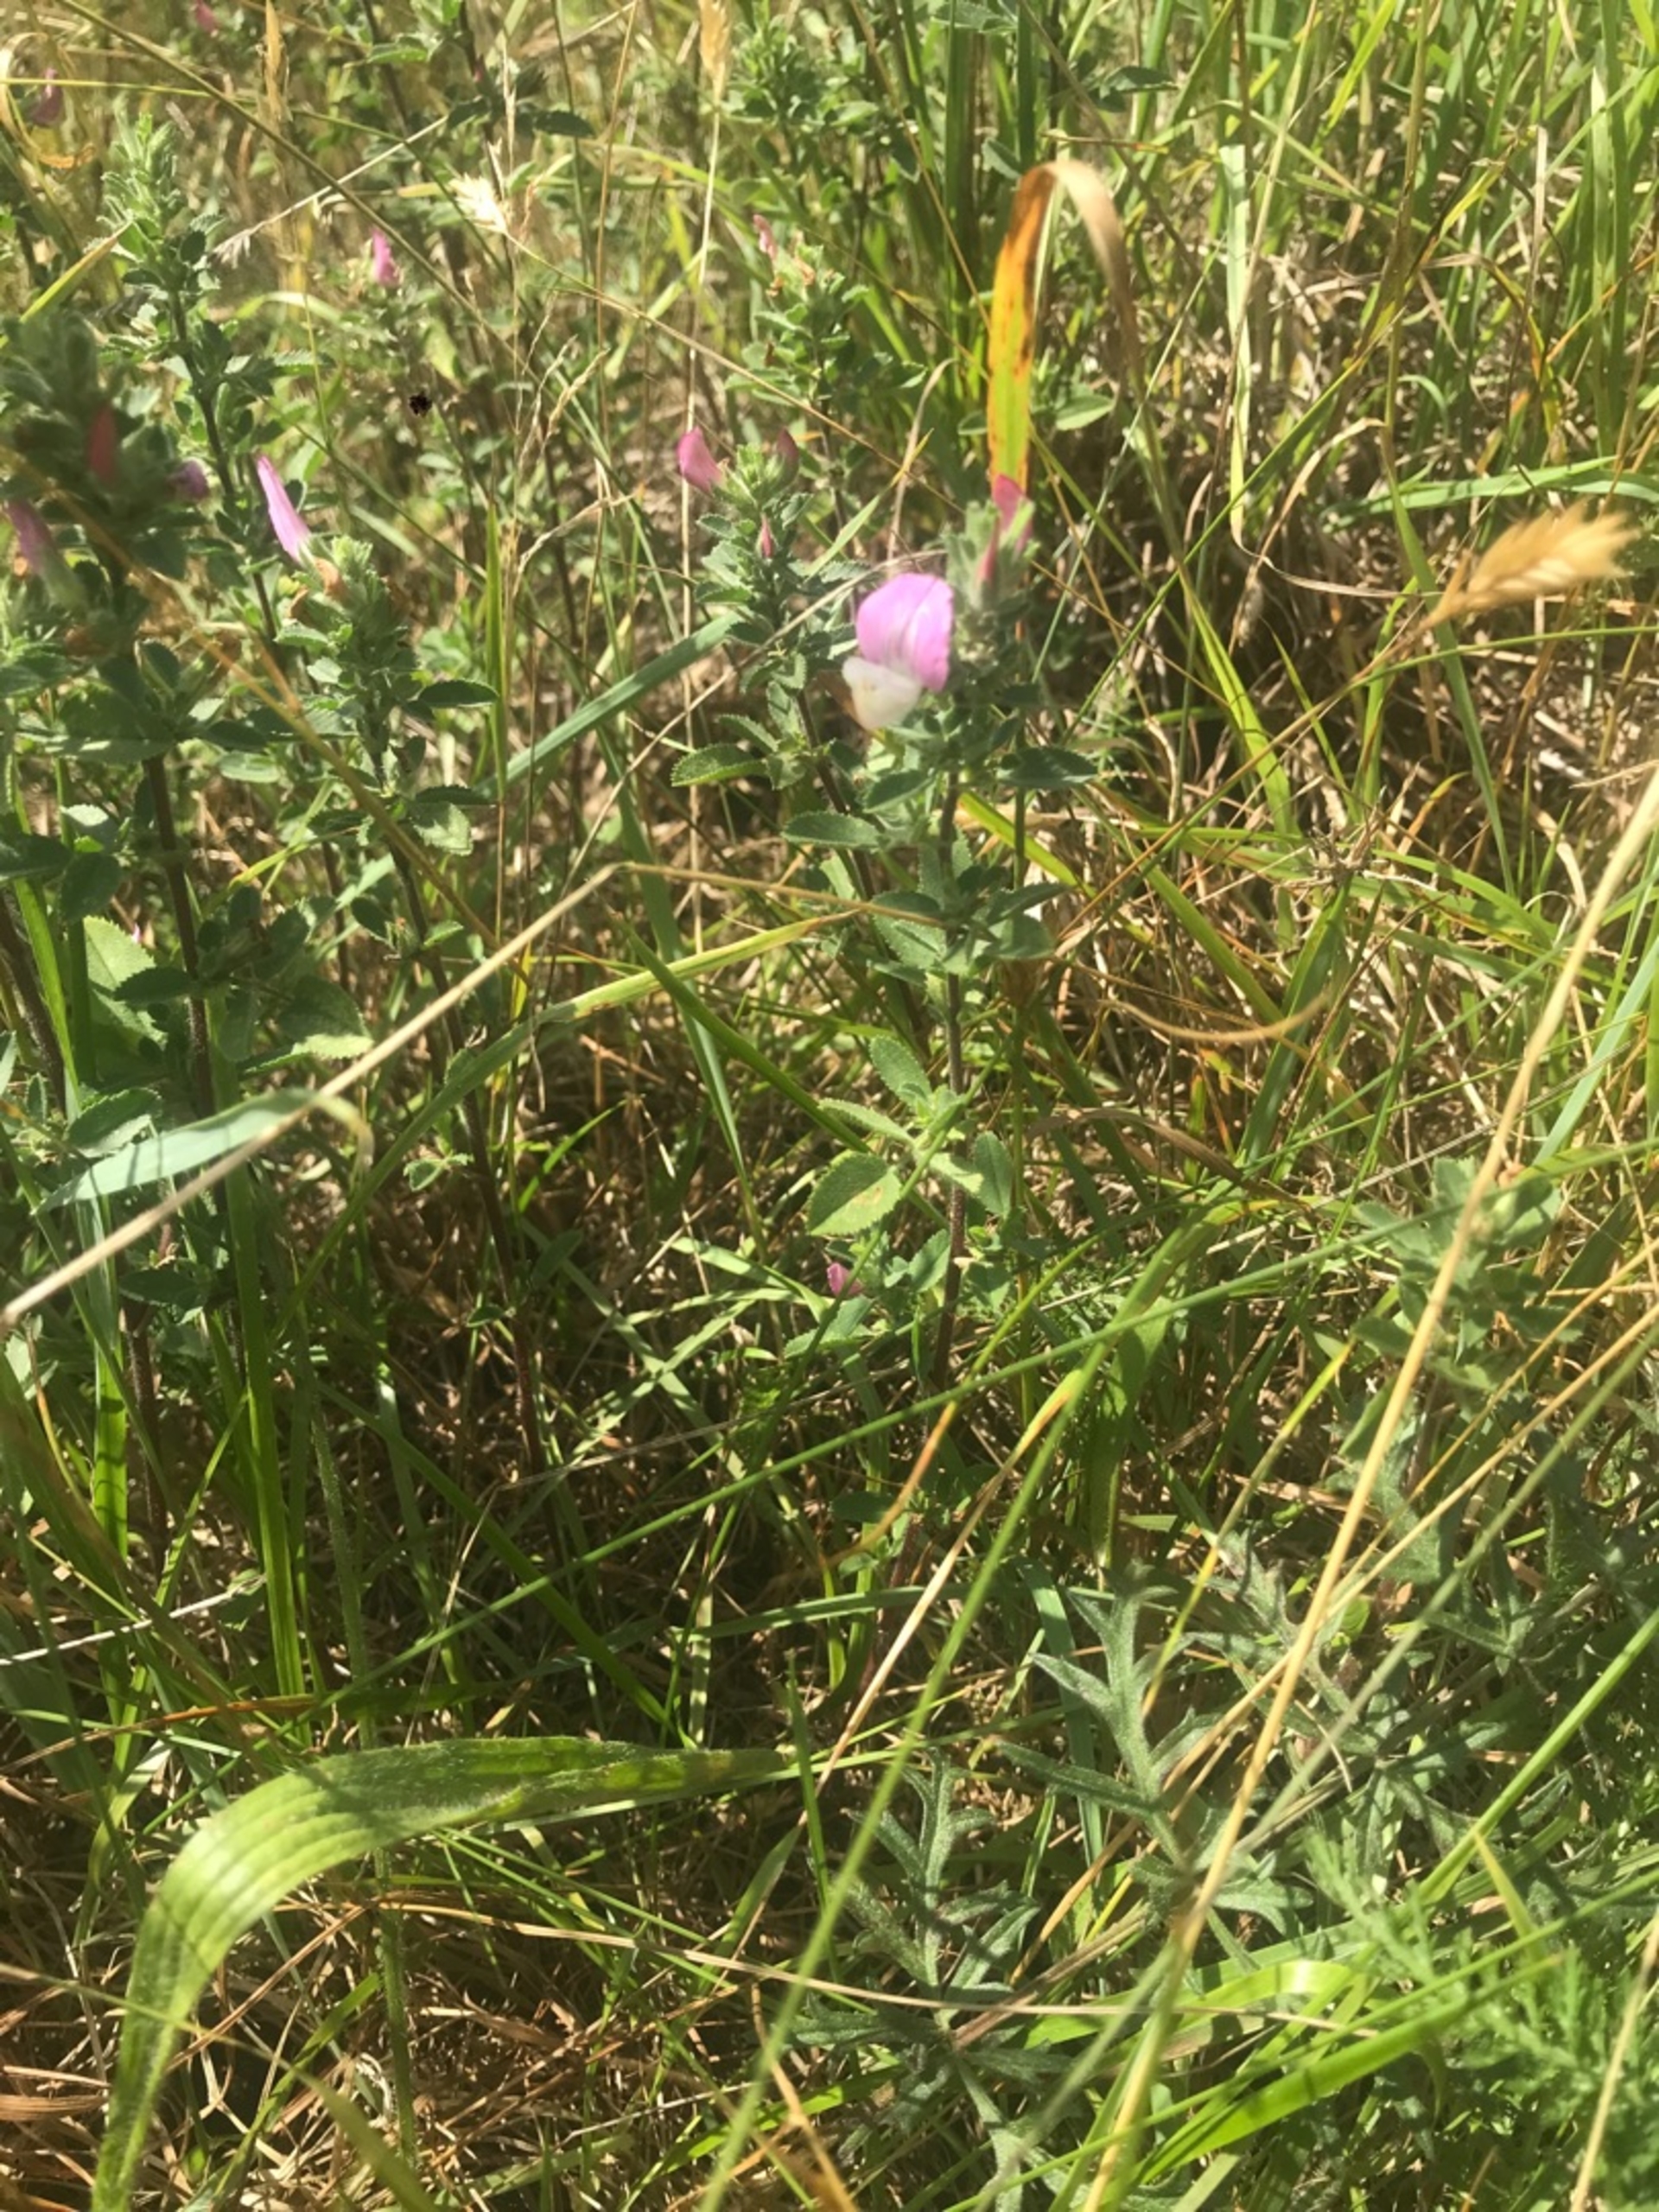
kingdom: Plantae
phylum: Tracheophyta
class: Magnoliopsida
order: Fabales
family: Fabaceae
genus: Ononis
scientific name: Ononis spinosa
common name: Mark-krageklo
